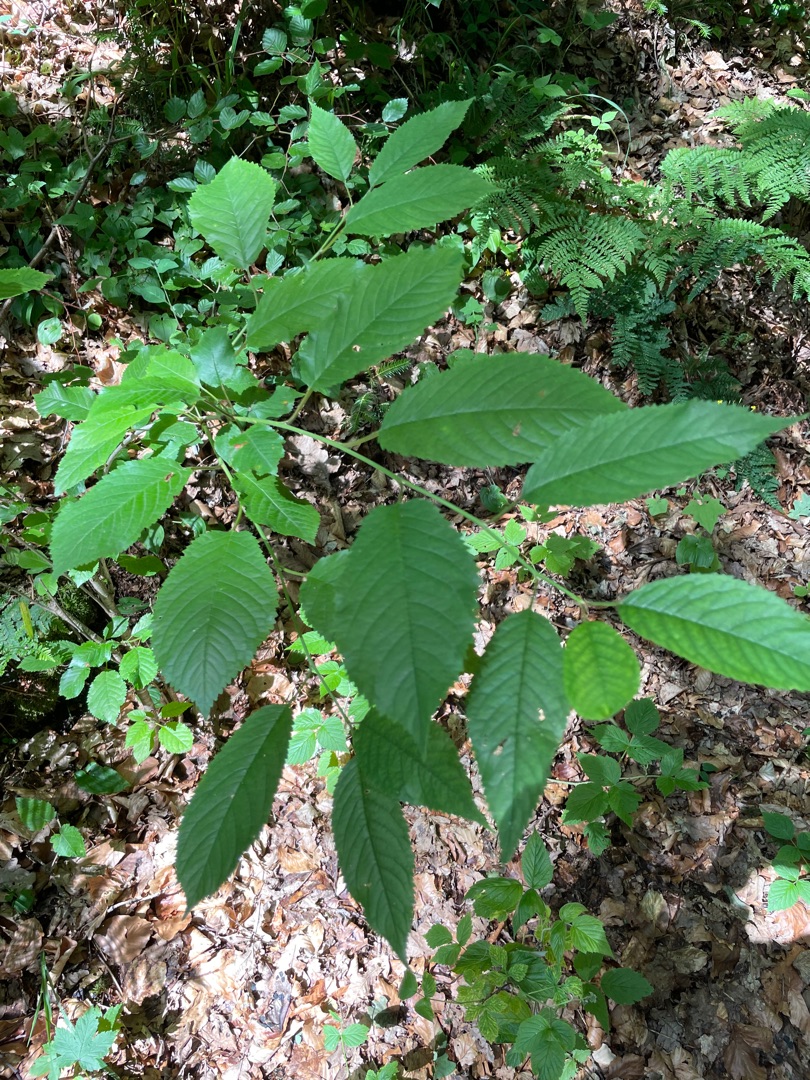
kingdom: Plantae
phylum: Tracheophyta
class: Magnoliopsida
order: Rosales
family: Rosaceae
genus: Prunus
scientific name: Prunus avium
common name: Fugle-kirsebær
